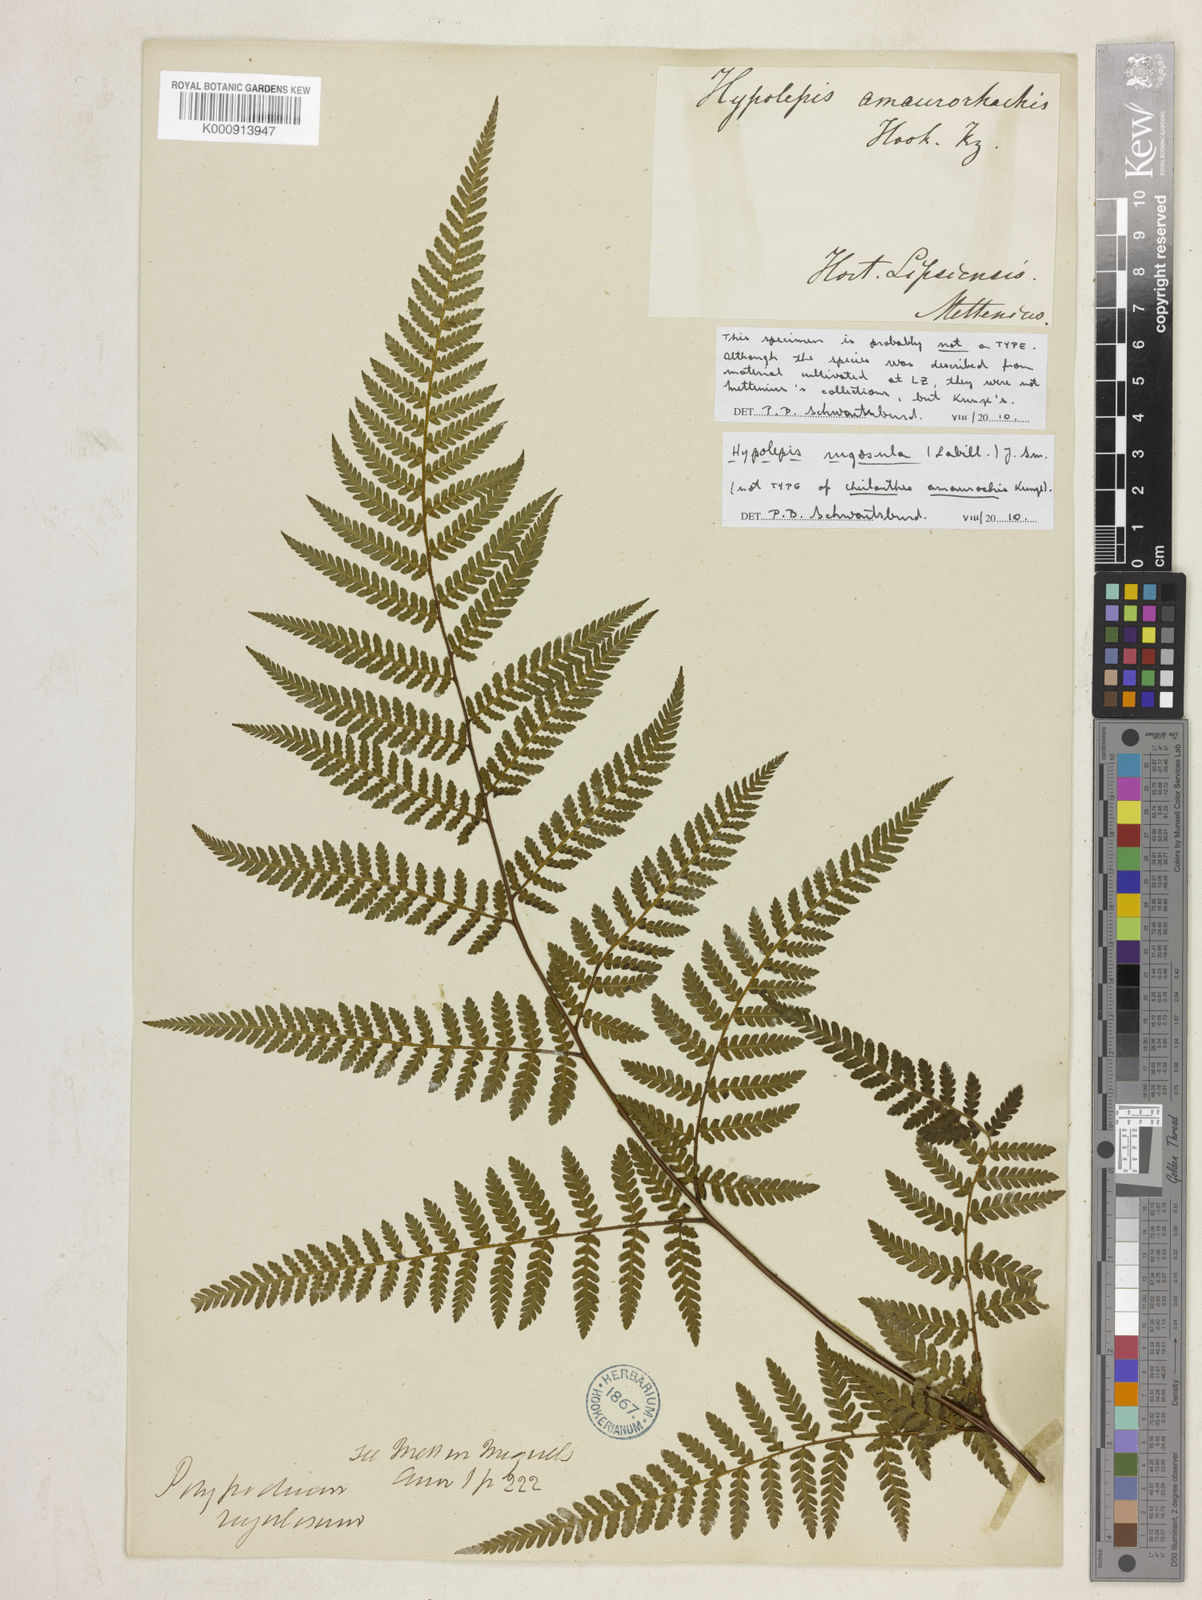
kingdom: Plantae
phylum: Tracheophyta
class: Polypodiopsida
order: Polypodiales
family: Dennstaedtiaceae
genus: Hypolepis
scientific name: Hypolepis rugosula
